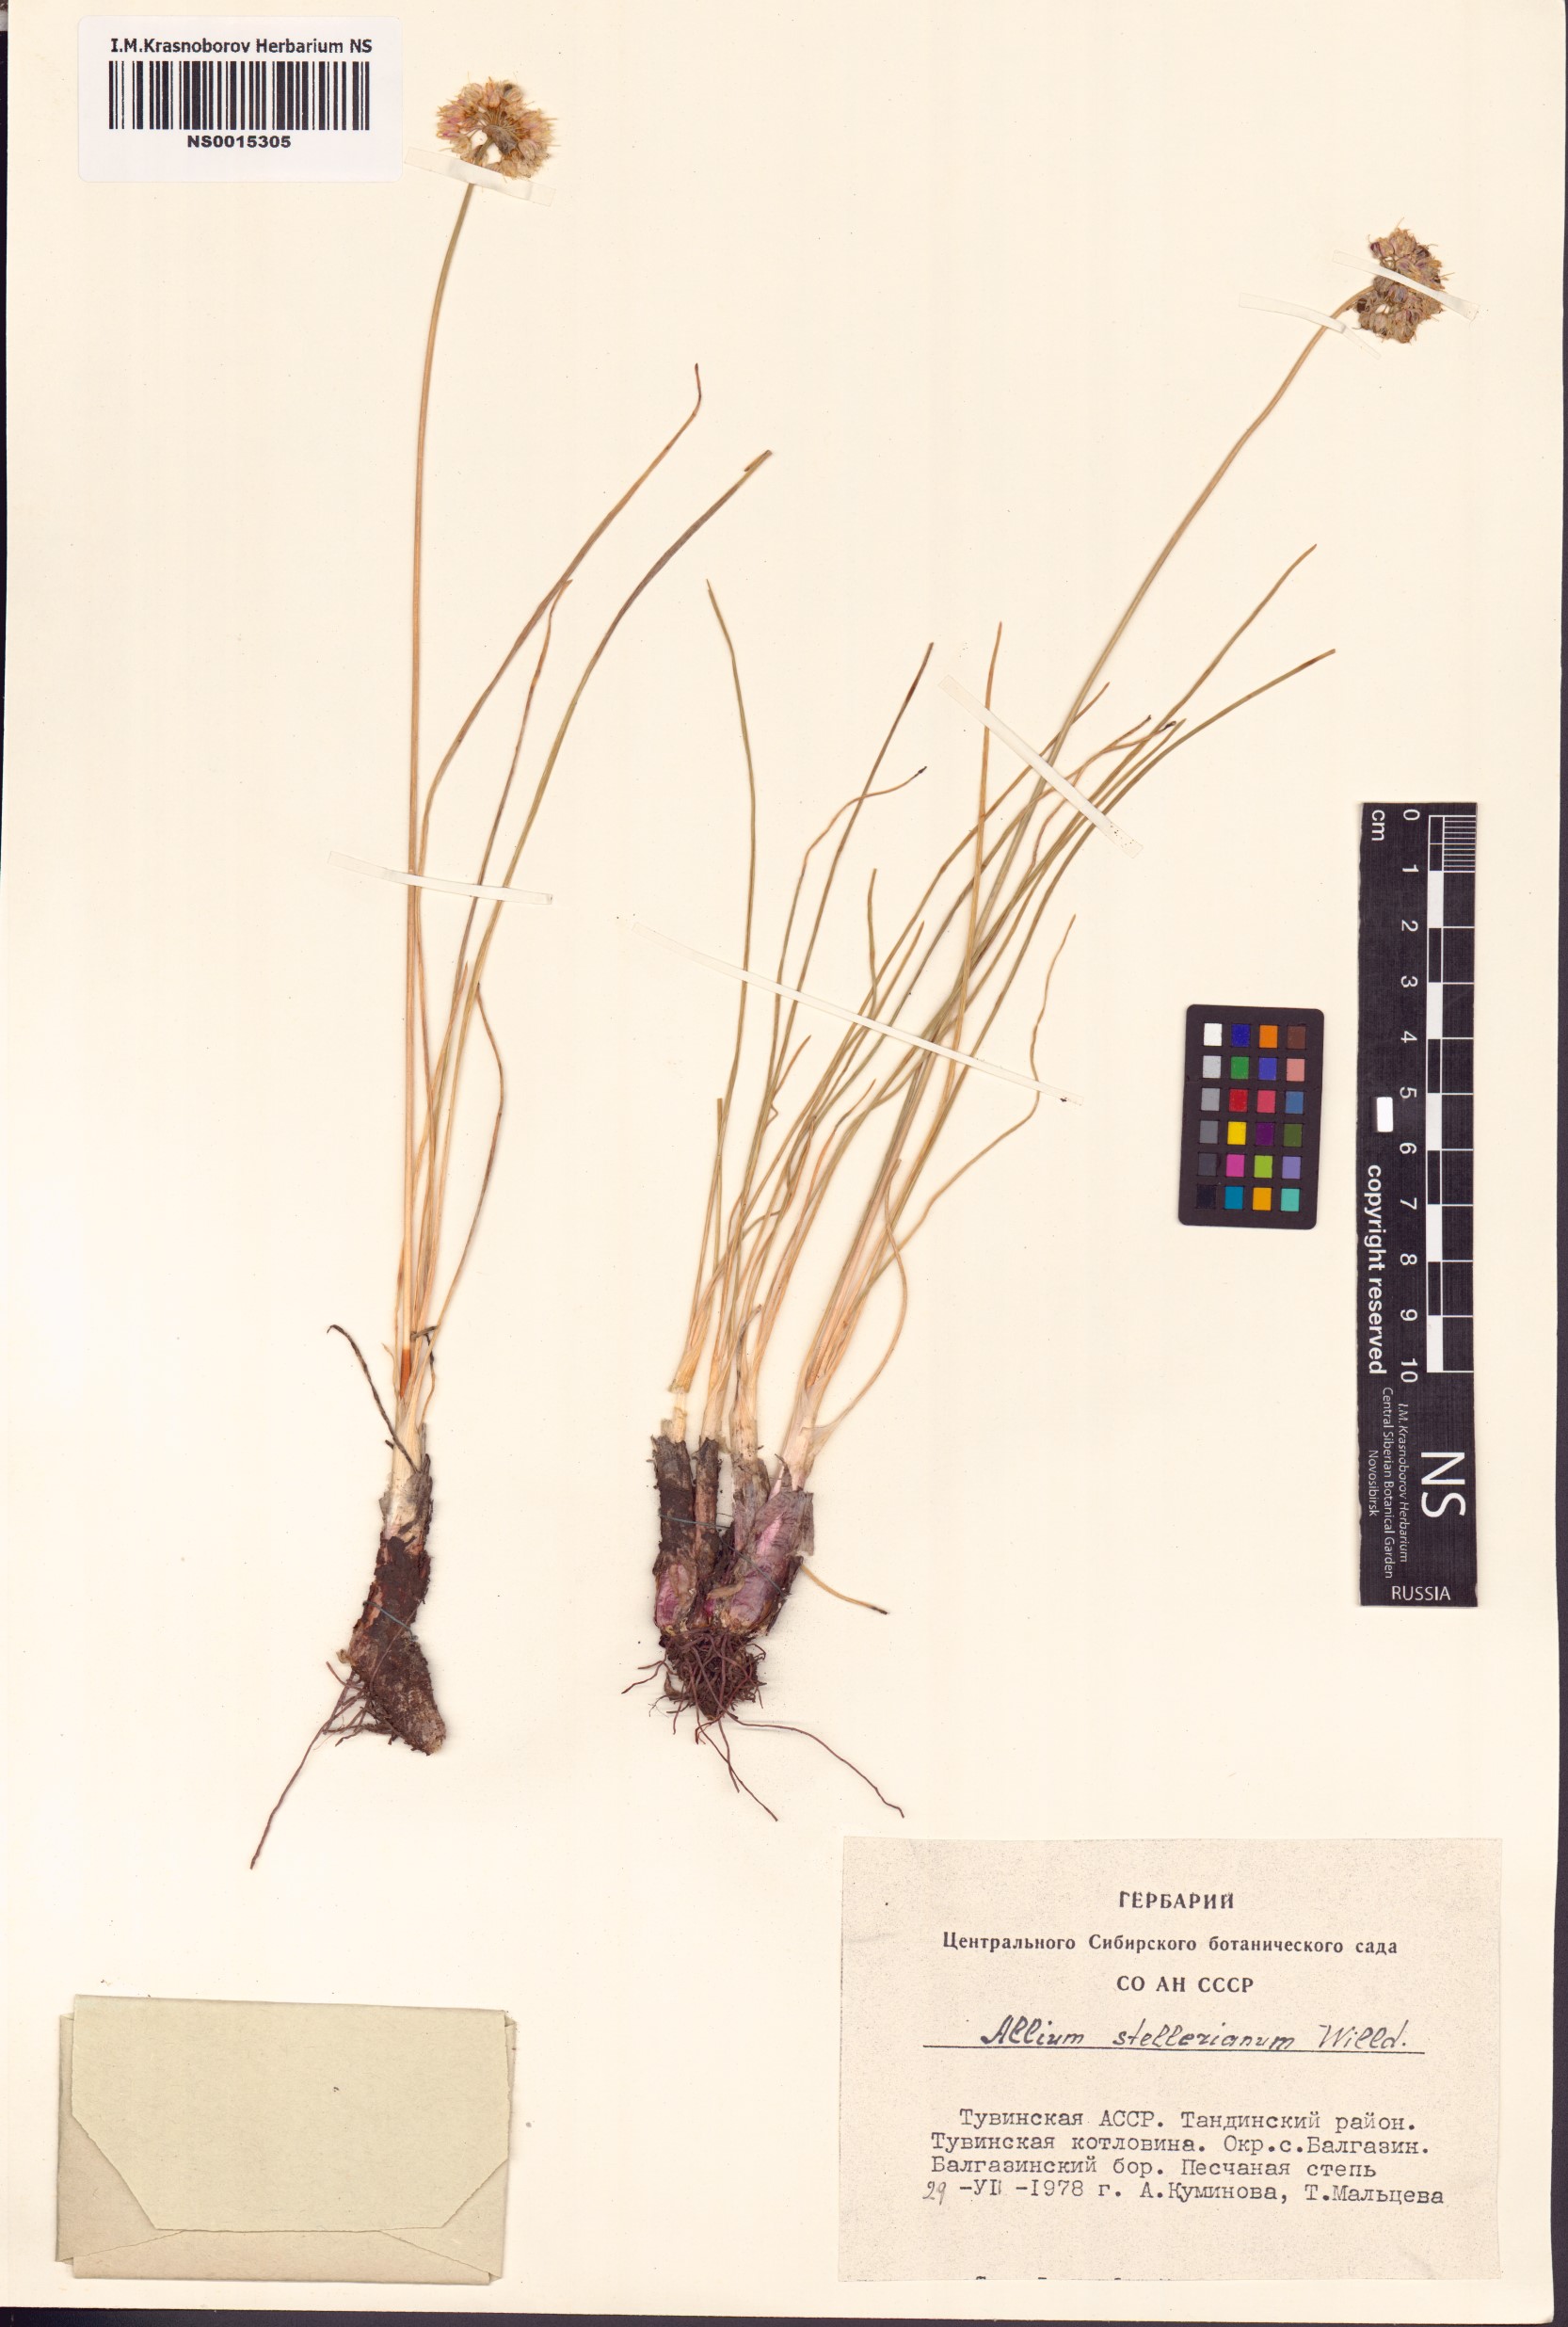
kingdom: Plantae
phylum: Tracheophyta
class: Liliopsida
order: Asparagales
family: Amaryllidaceae
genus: Allium
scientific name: Allium stellerianum
